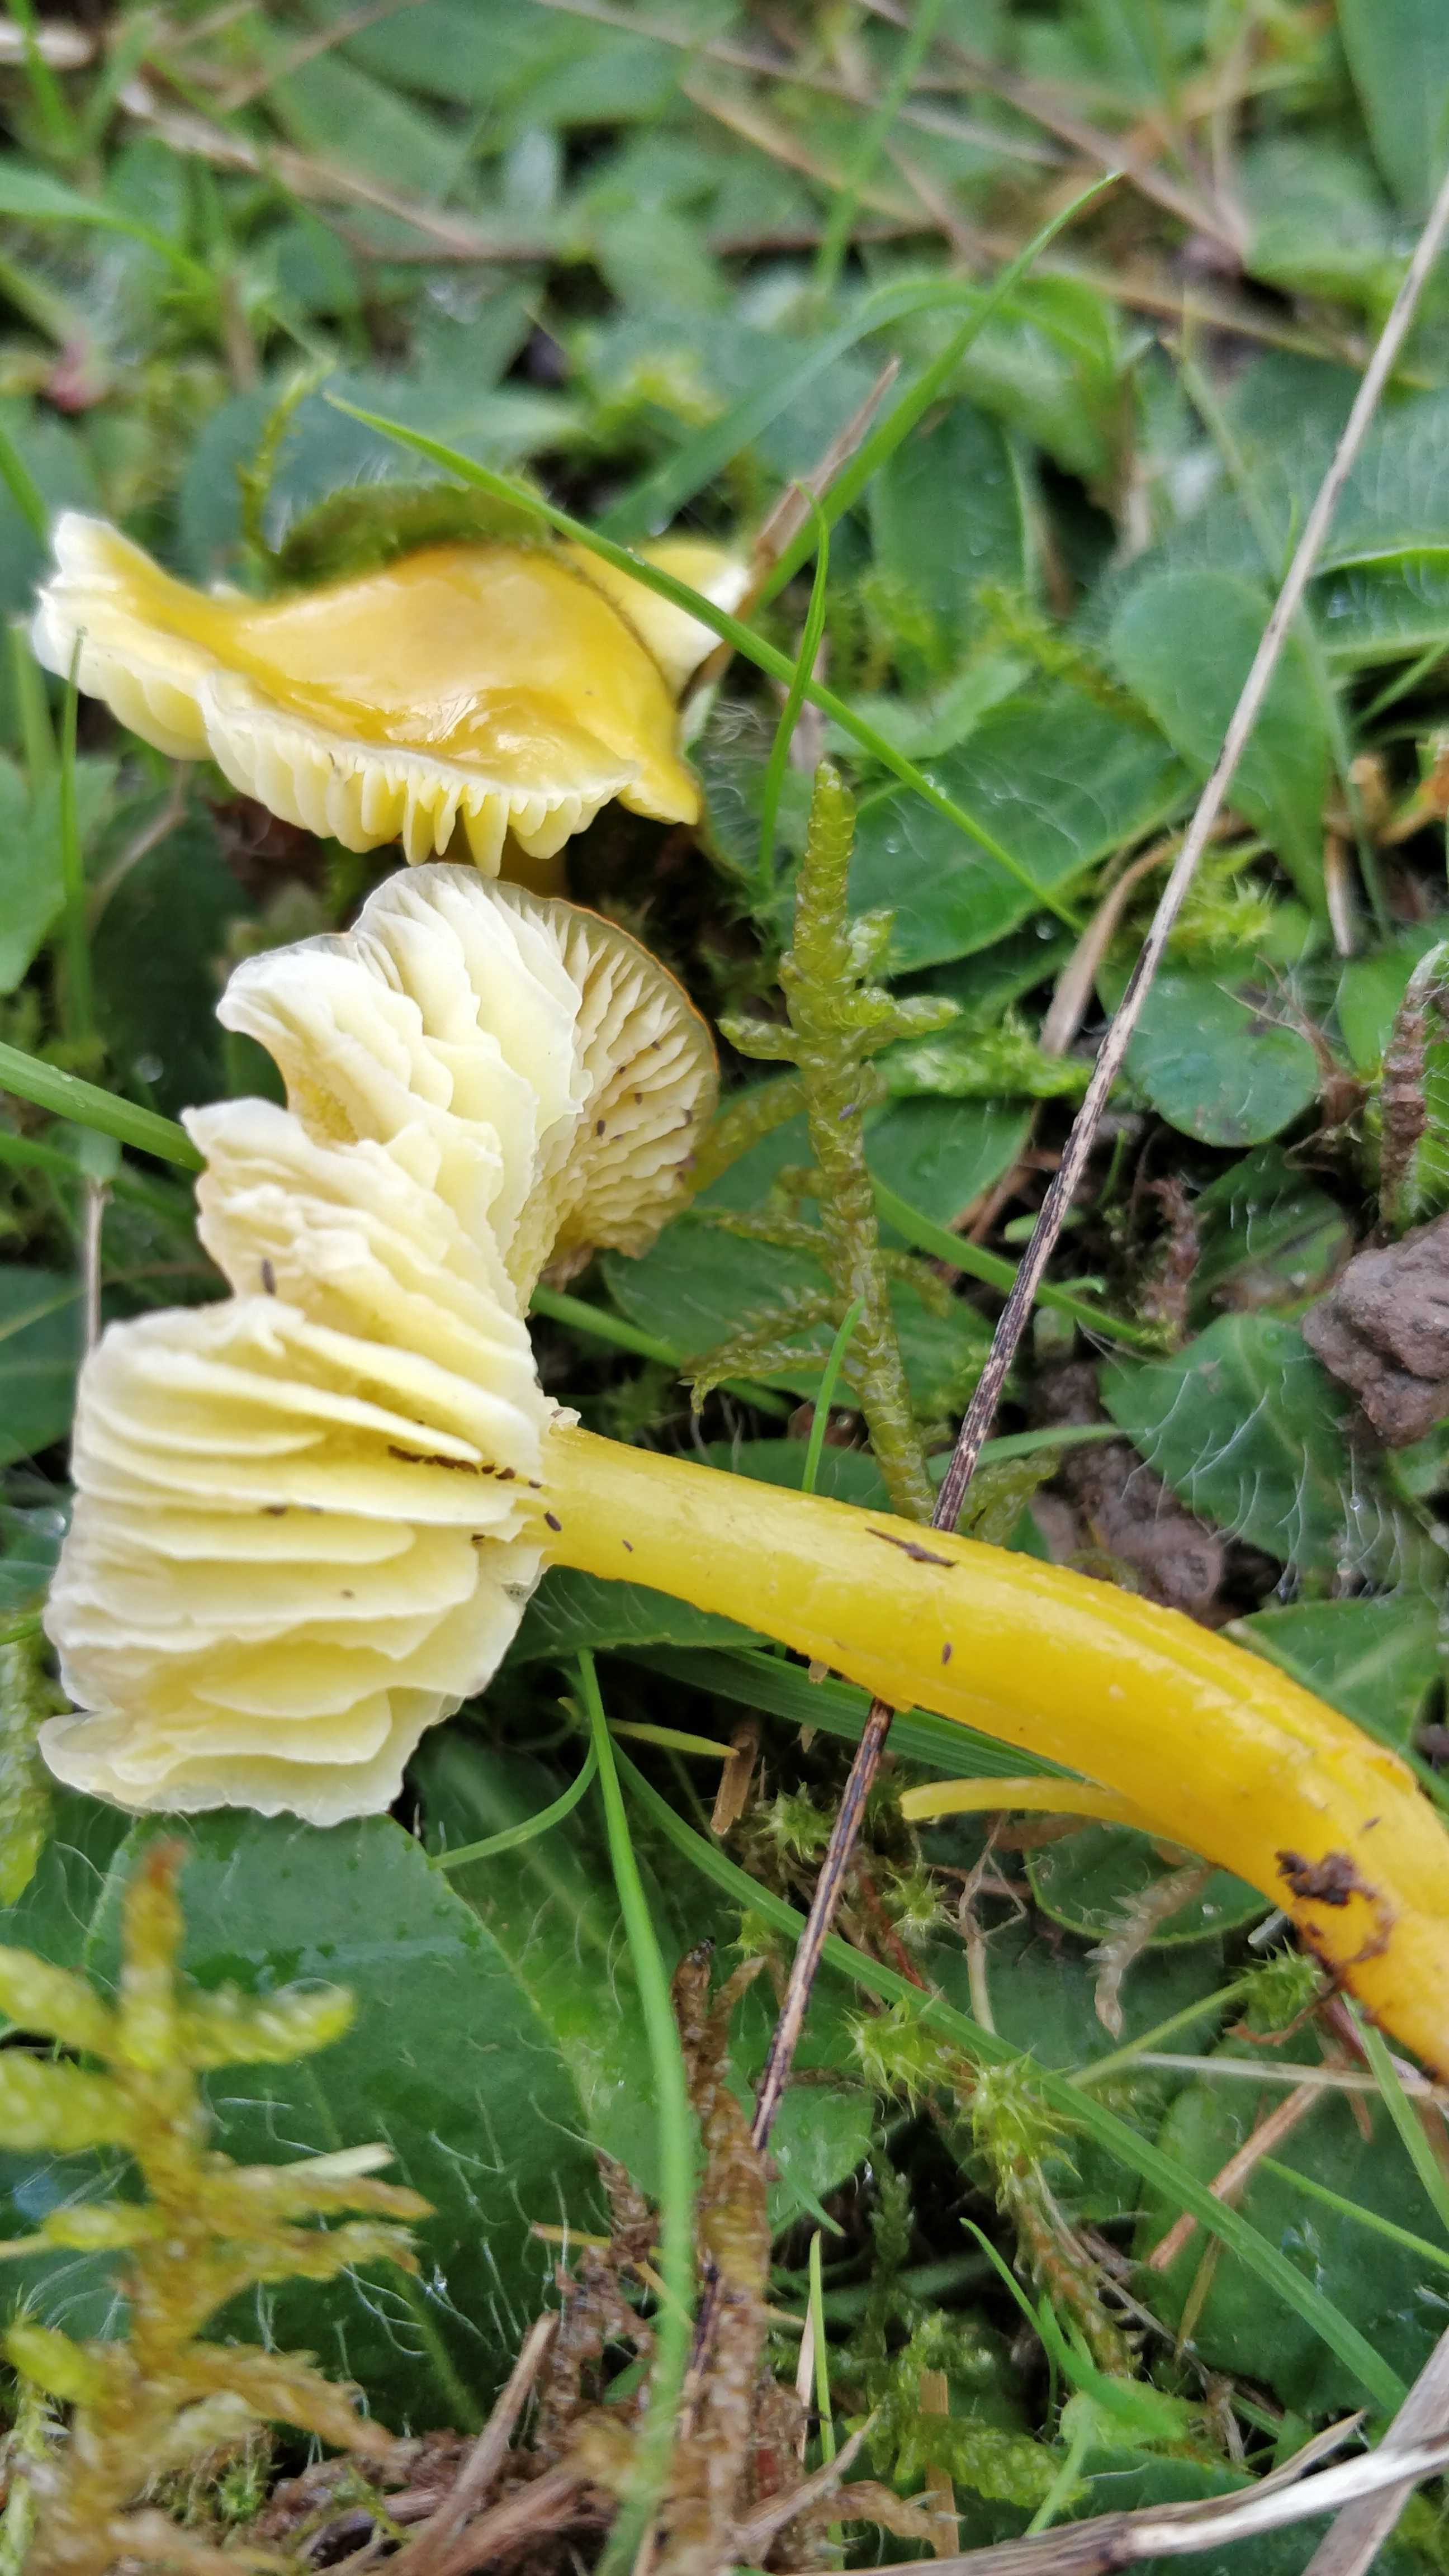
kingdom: Fungi
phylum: Basidiomycota
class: Agaricomycetes
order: Agaricales
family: Hygrophoraceae
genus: Hygrocybe
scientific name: Hygrocybe glutinipes
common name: slimstokket vokshat
